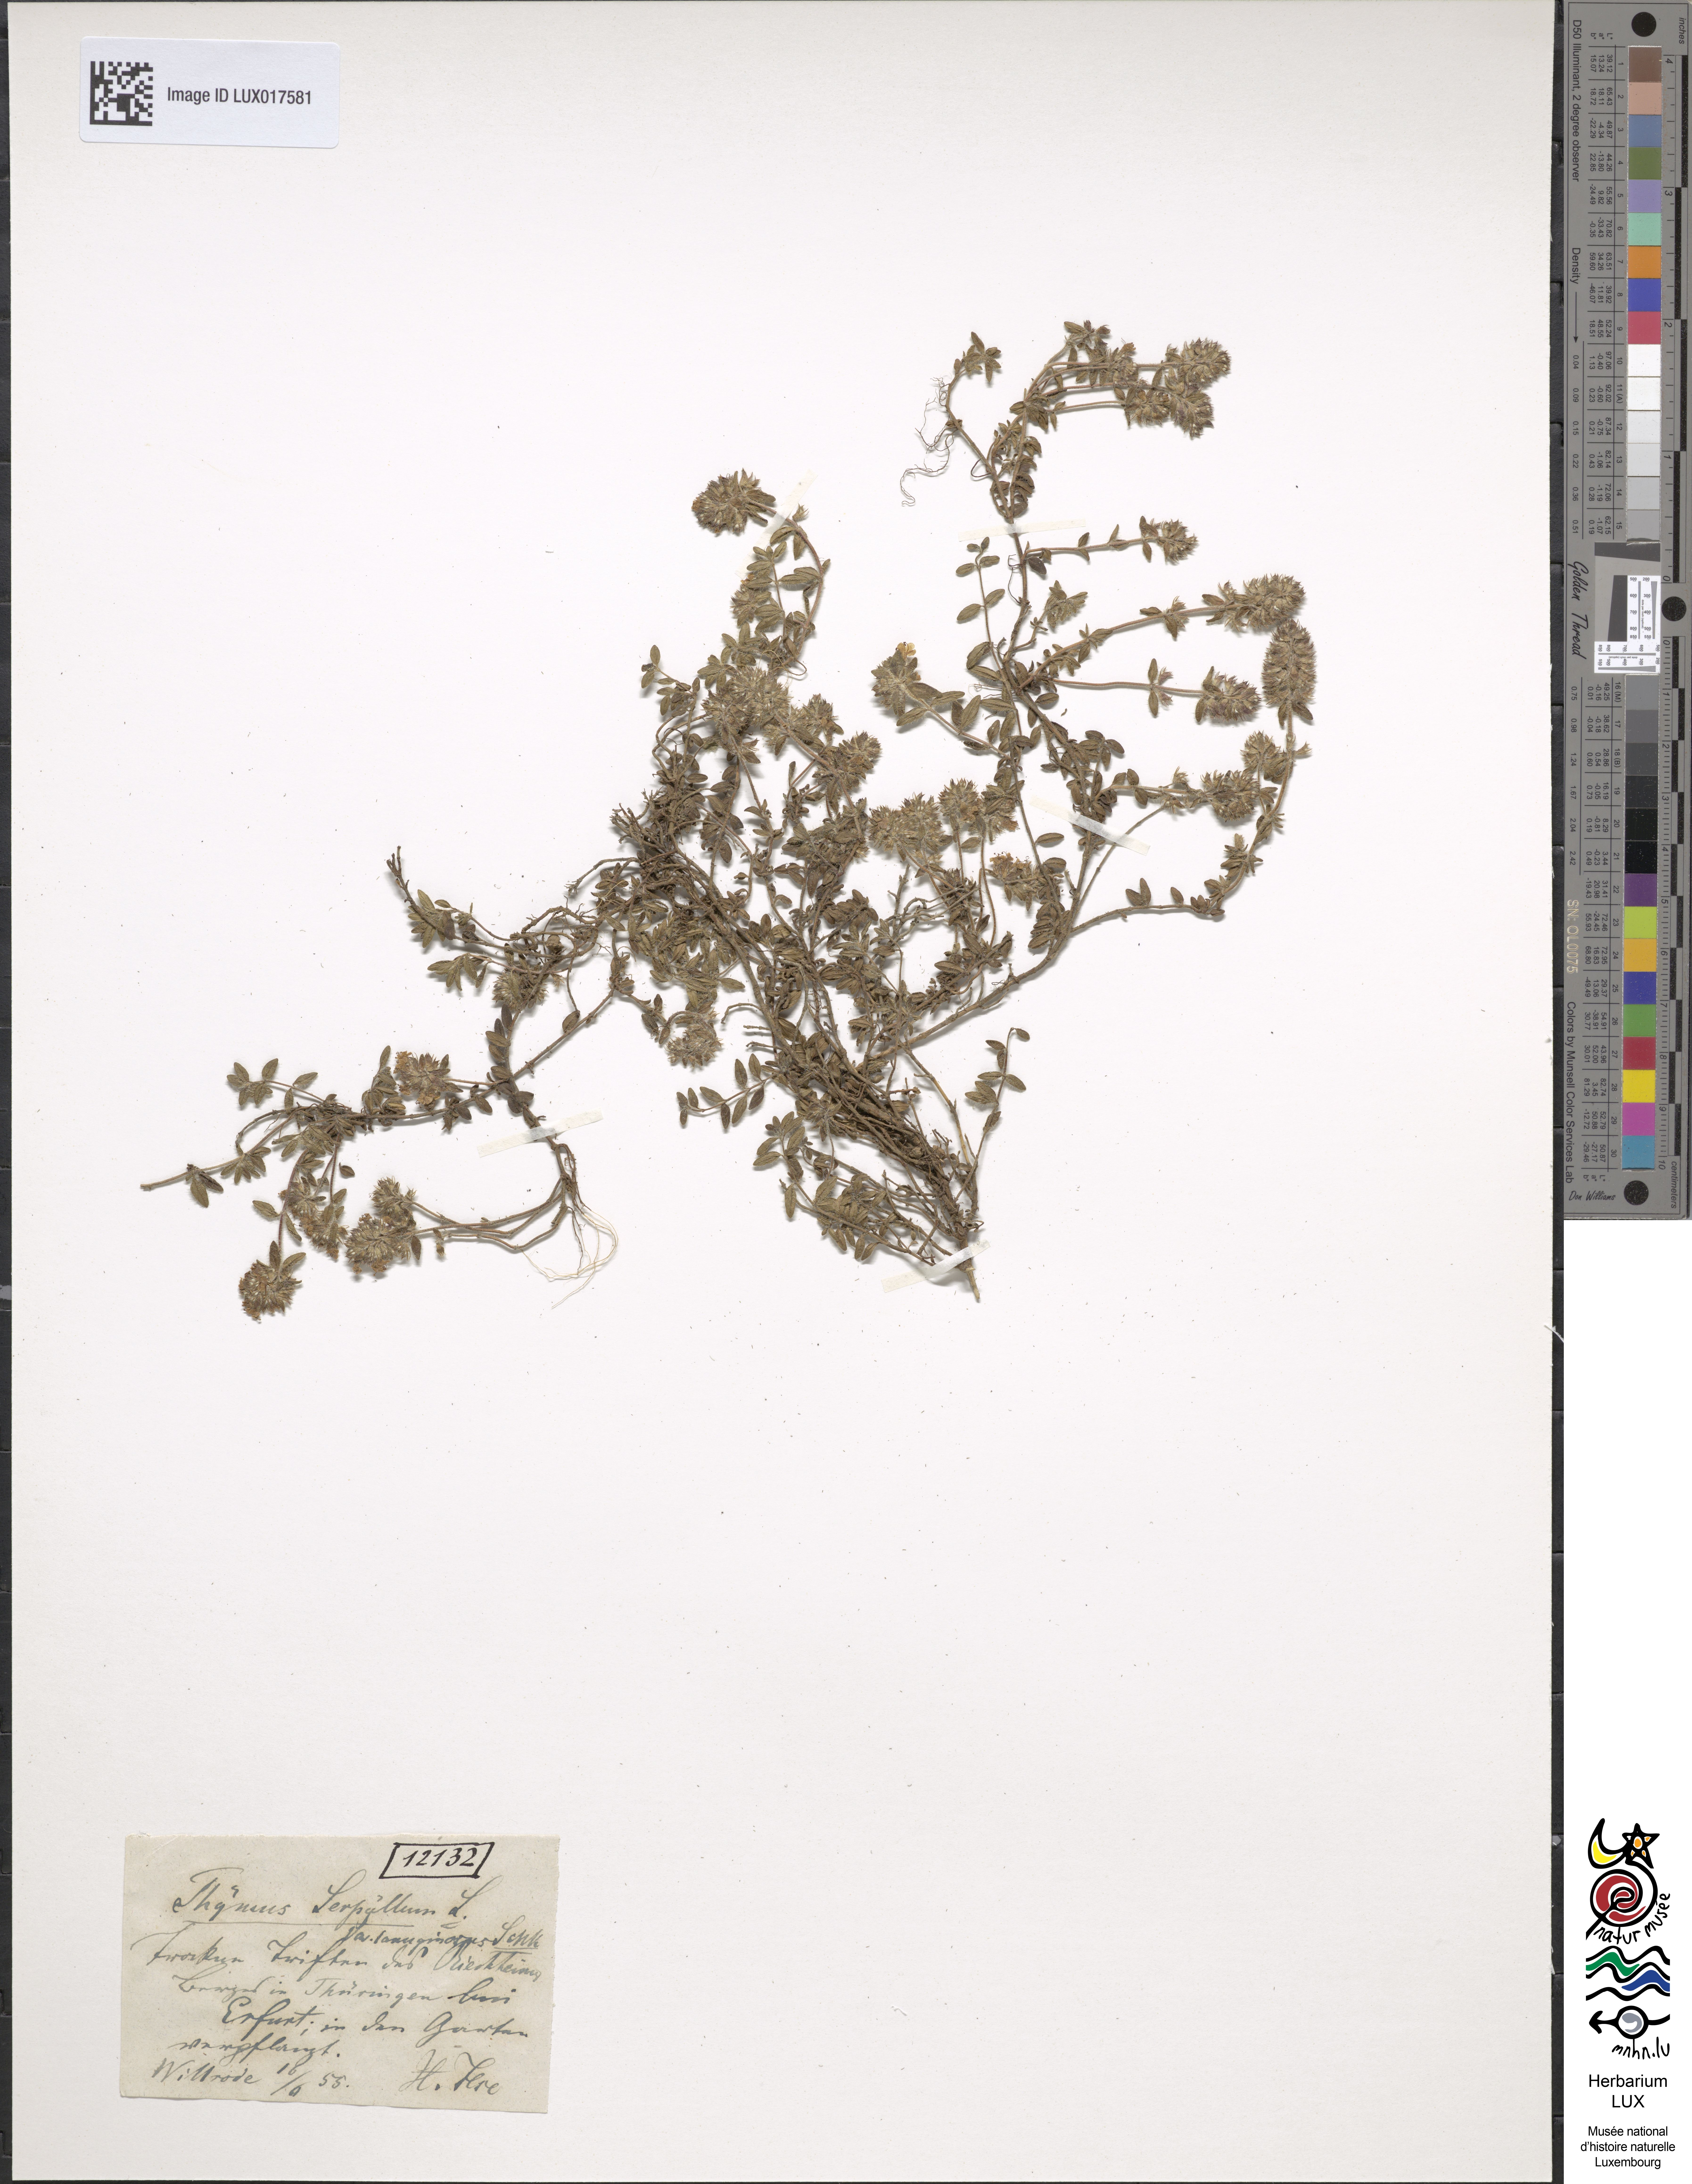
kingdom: Plantae
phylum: Tracheophyta
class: Magnoliopsida
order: Lamiales
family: Lamiaceae
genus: Thymus
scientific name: Thymus oenipontanus
